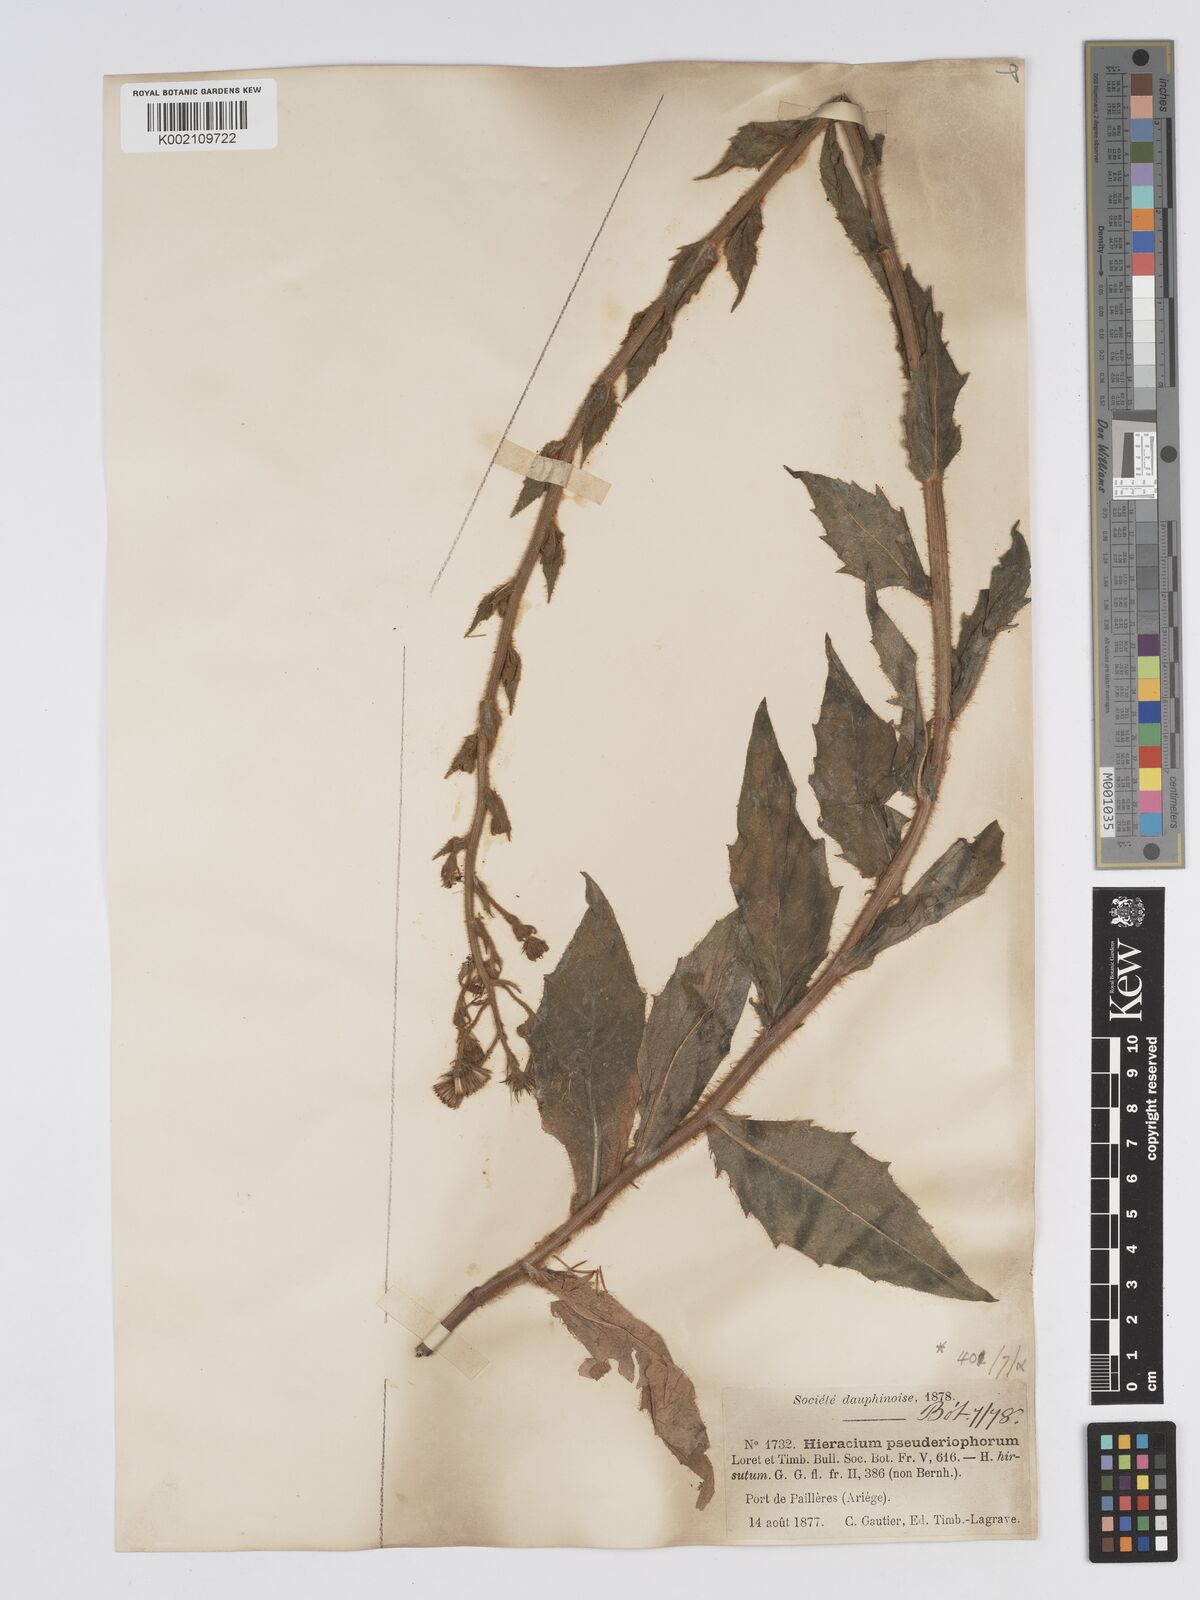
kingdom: Plantae
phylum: Tracheophyta
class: Magnoliopsida
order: Asterales
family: Asteraceae
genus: Hieracium
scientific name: Hieracium
